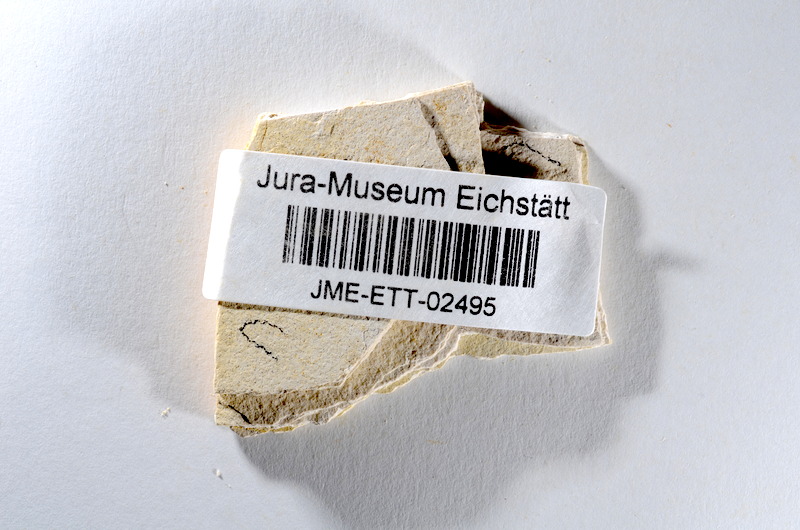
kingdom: Animalia
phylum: Chordata
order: Salmoniformes
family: Orthogonikleithridae
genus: Orthogonikleithrus
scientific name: Orthogonikleithrus hoelli
